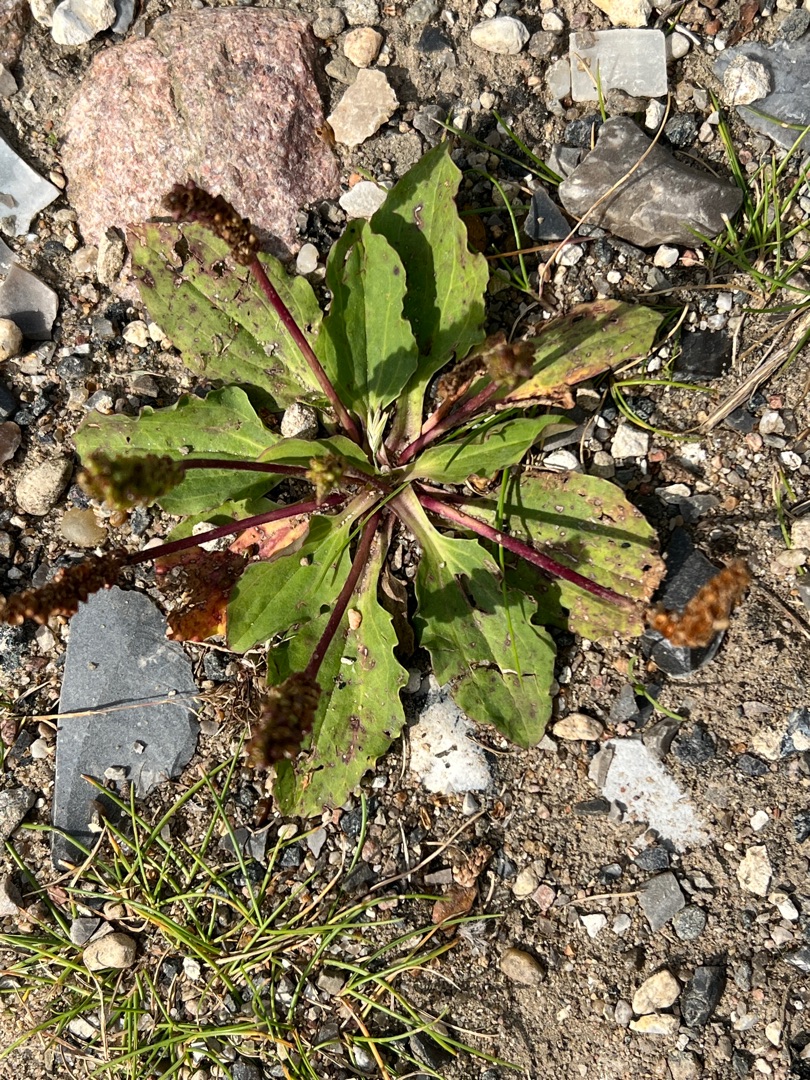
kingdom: Plantae
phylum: Tracheophyta
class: Magnoliopsida
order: Lamiales
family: Plantaginaceae
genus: Plantago
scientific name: Plantago major
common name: Glat vejbred
